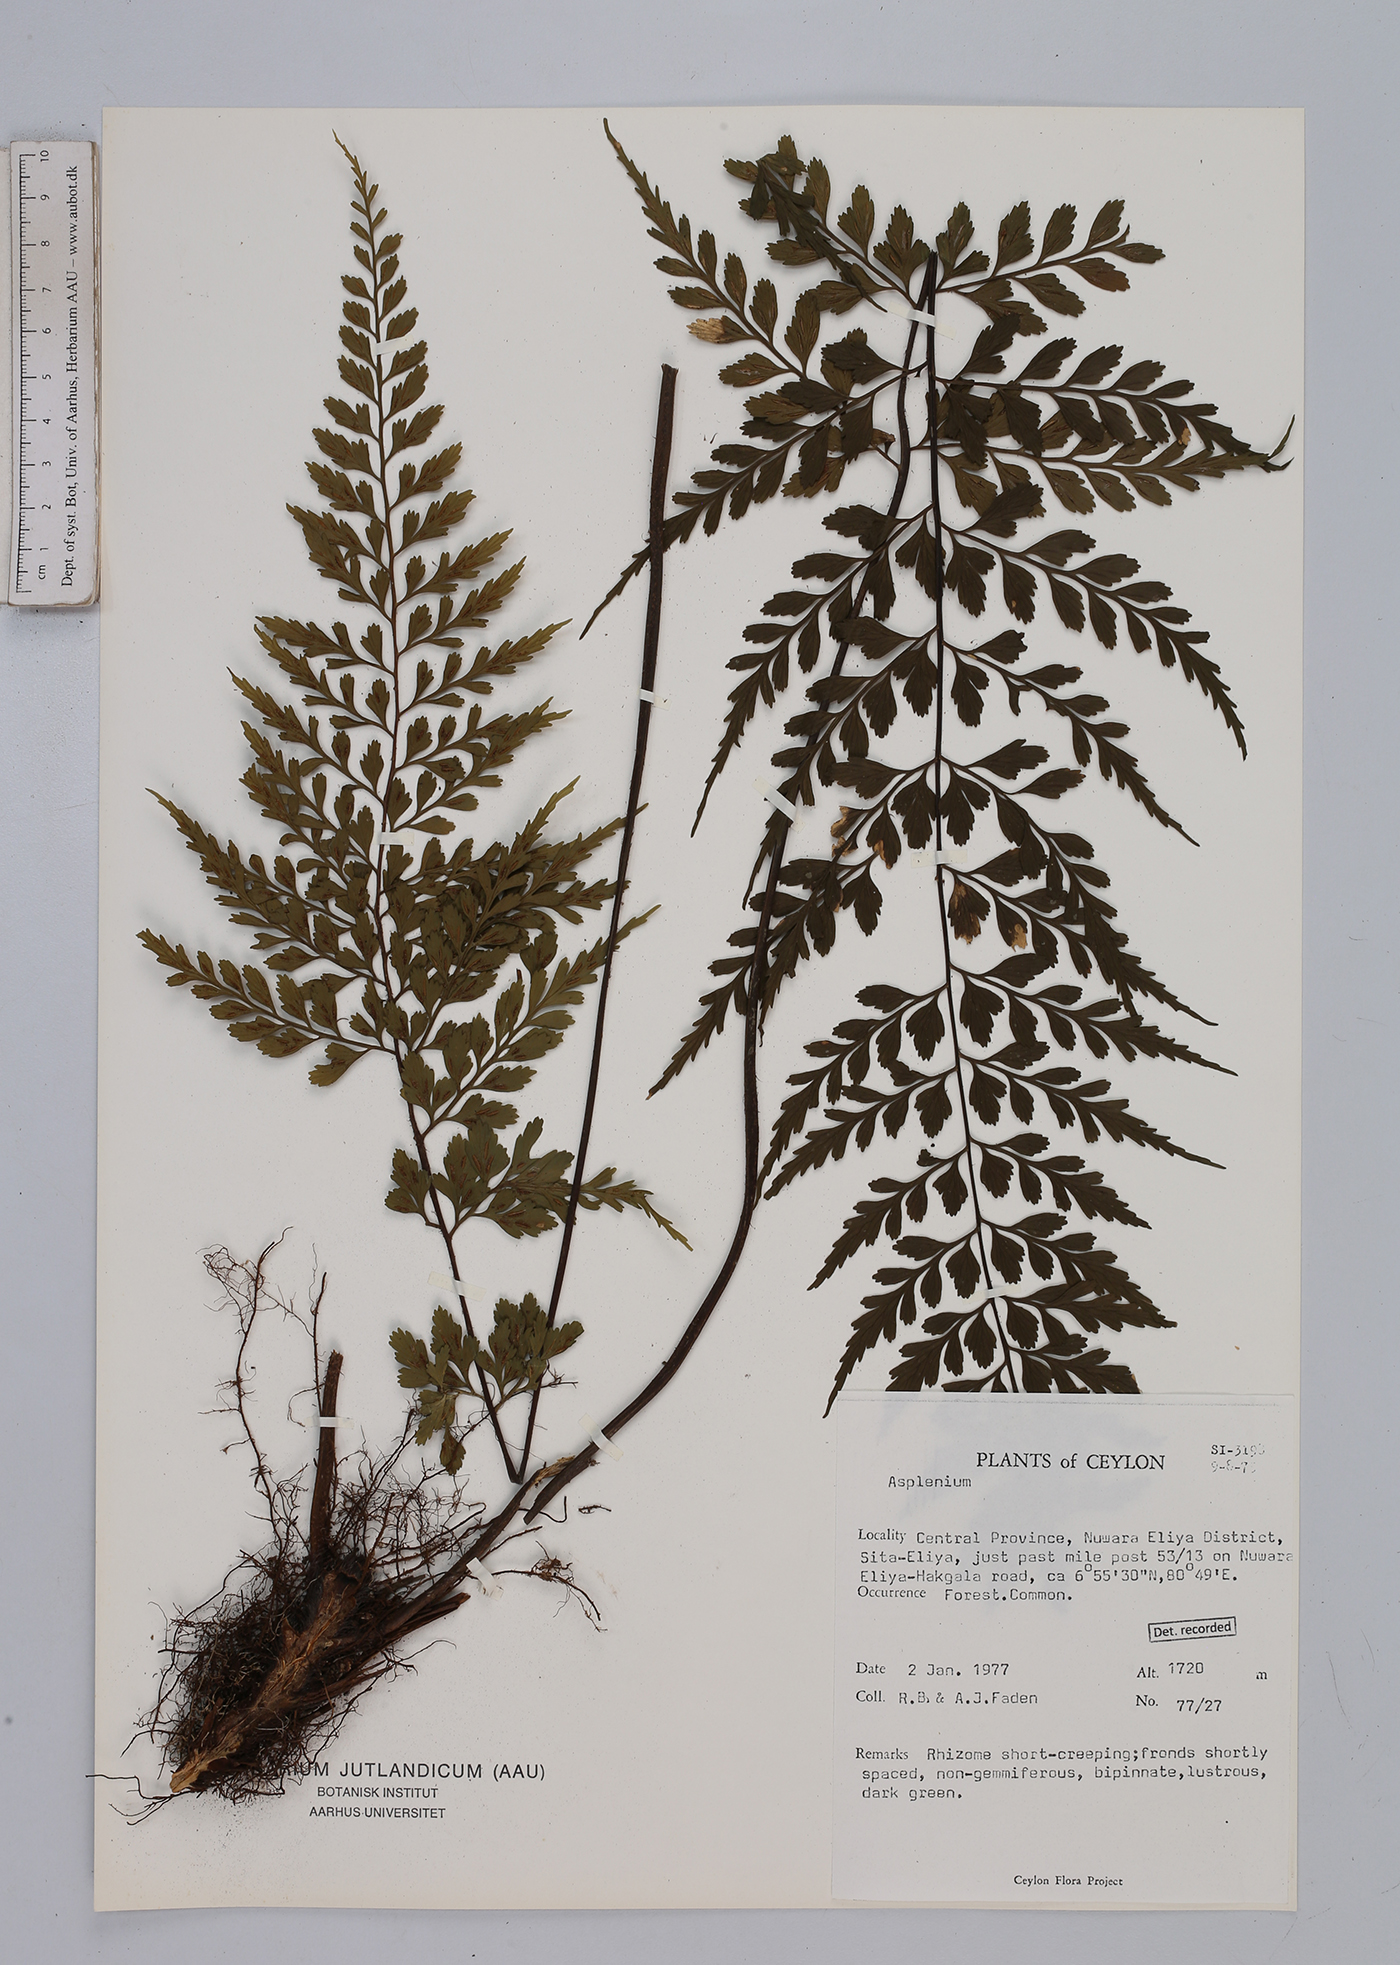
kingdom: Plantae
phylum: Tracheophyta
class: Polypodiopsida
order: Polypodiales
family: Aspleniaceae
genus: Asplenium
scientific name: Asplenium
